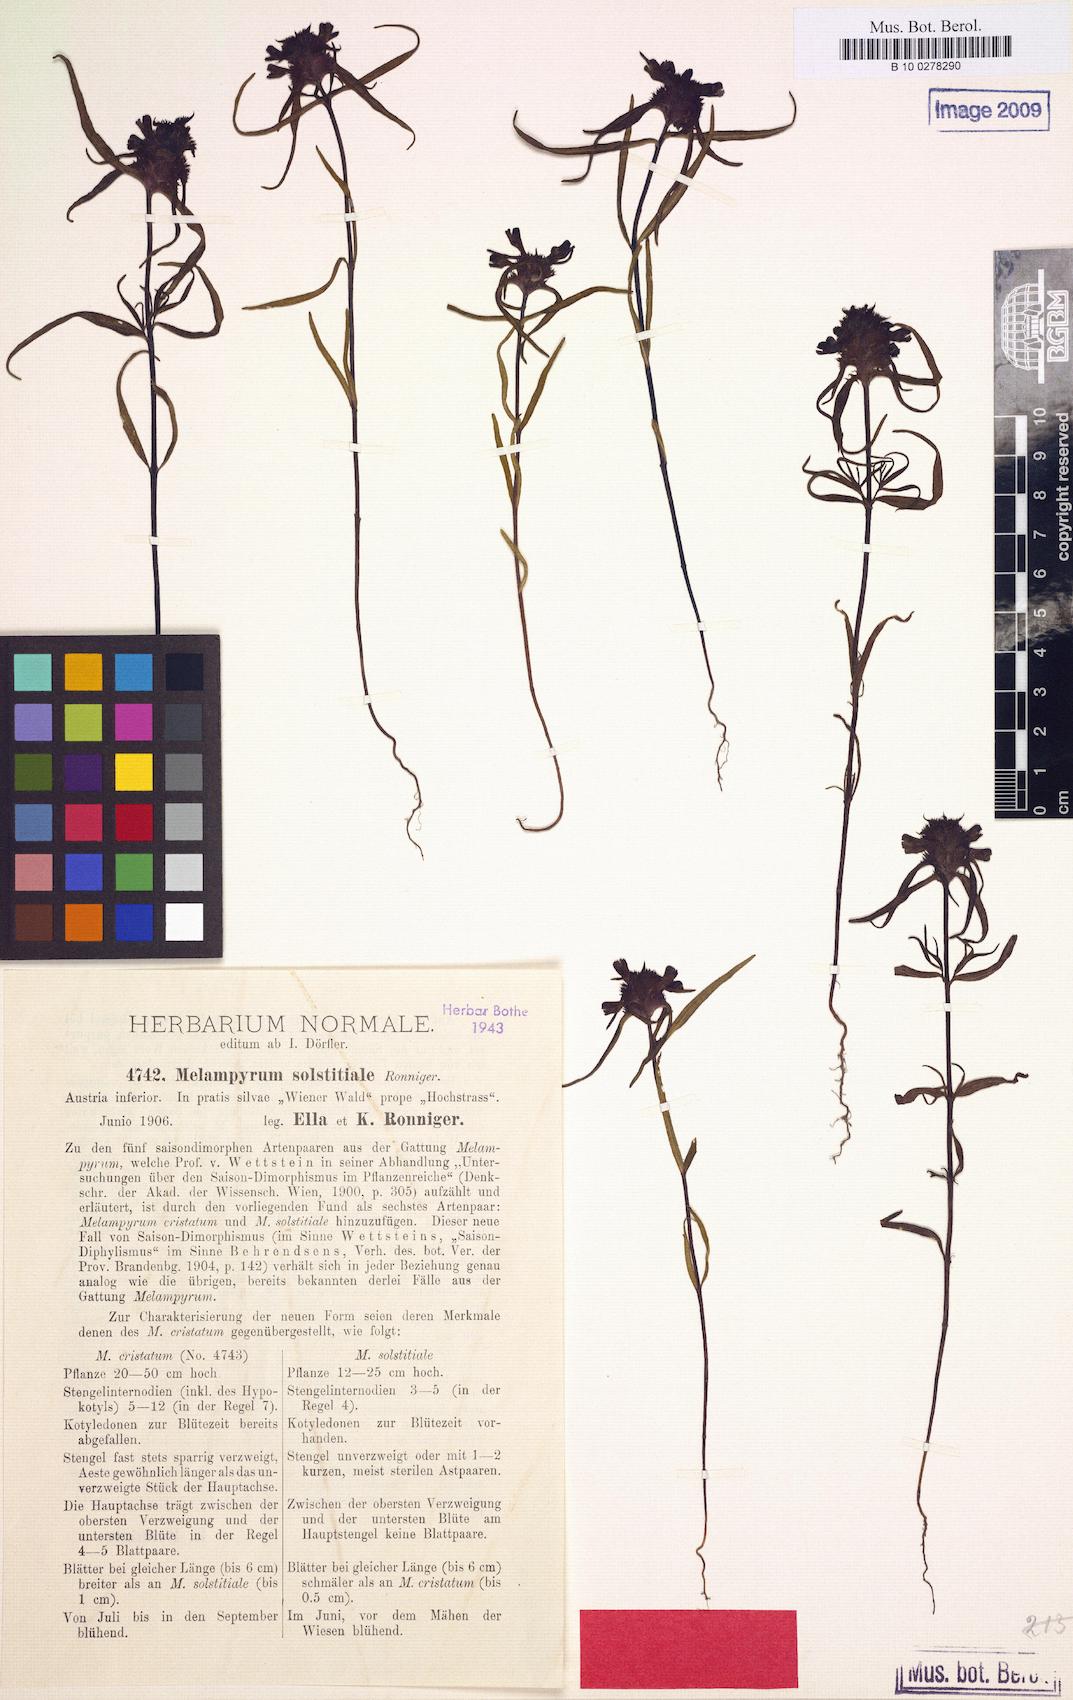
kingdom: Plantae
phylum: Tracheophyta
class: Magnoliopsida
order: Lamiales
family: Orobanchaceae
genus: Melampyrum
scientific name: Melampyrum cristatum
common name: Crested cow-wheat
